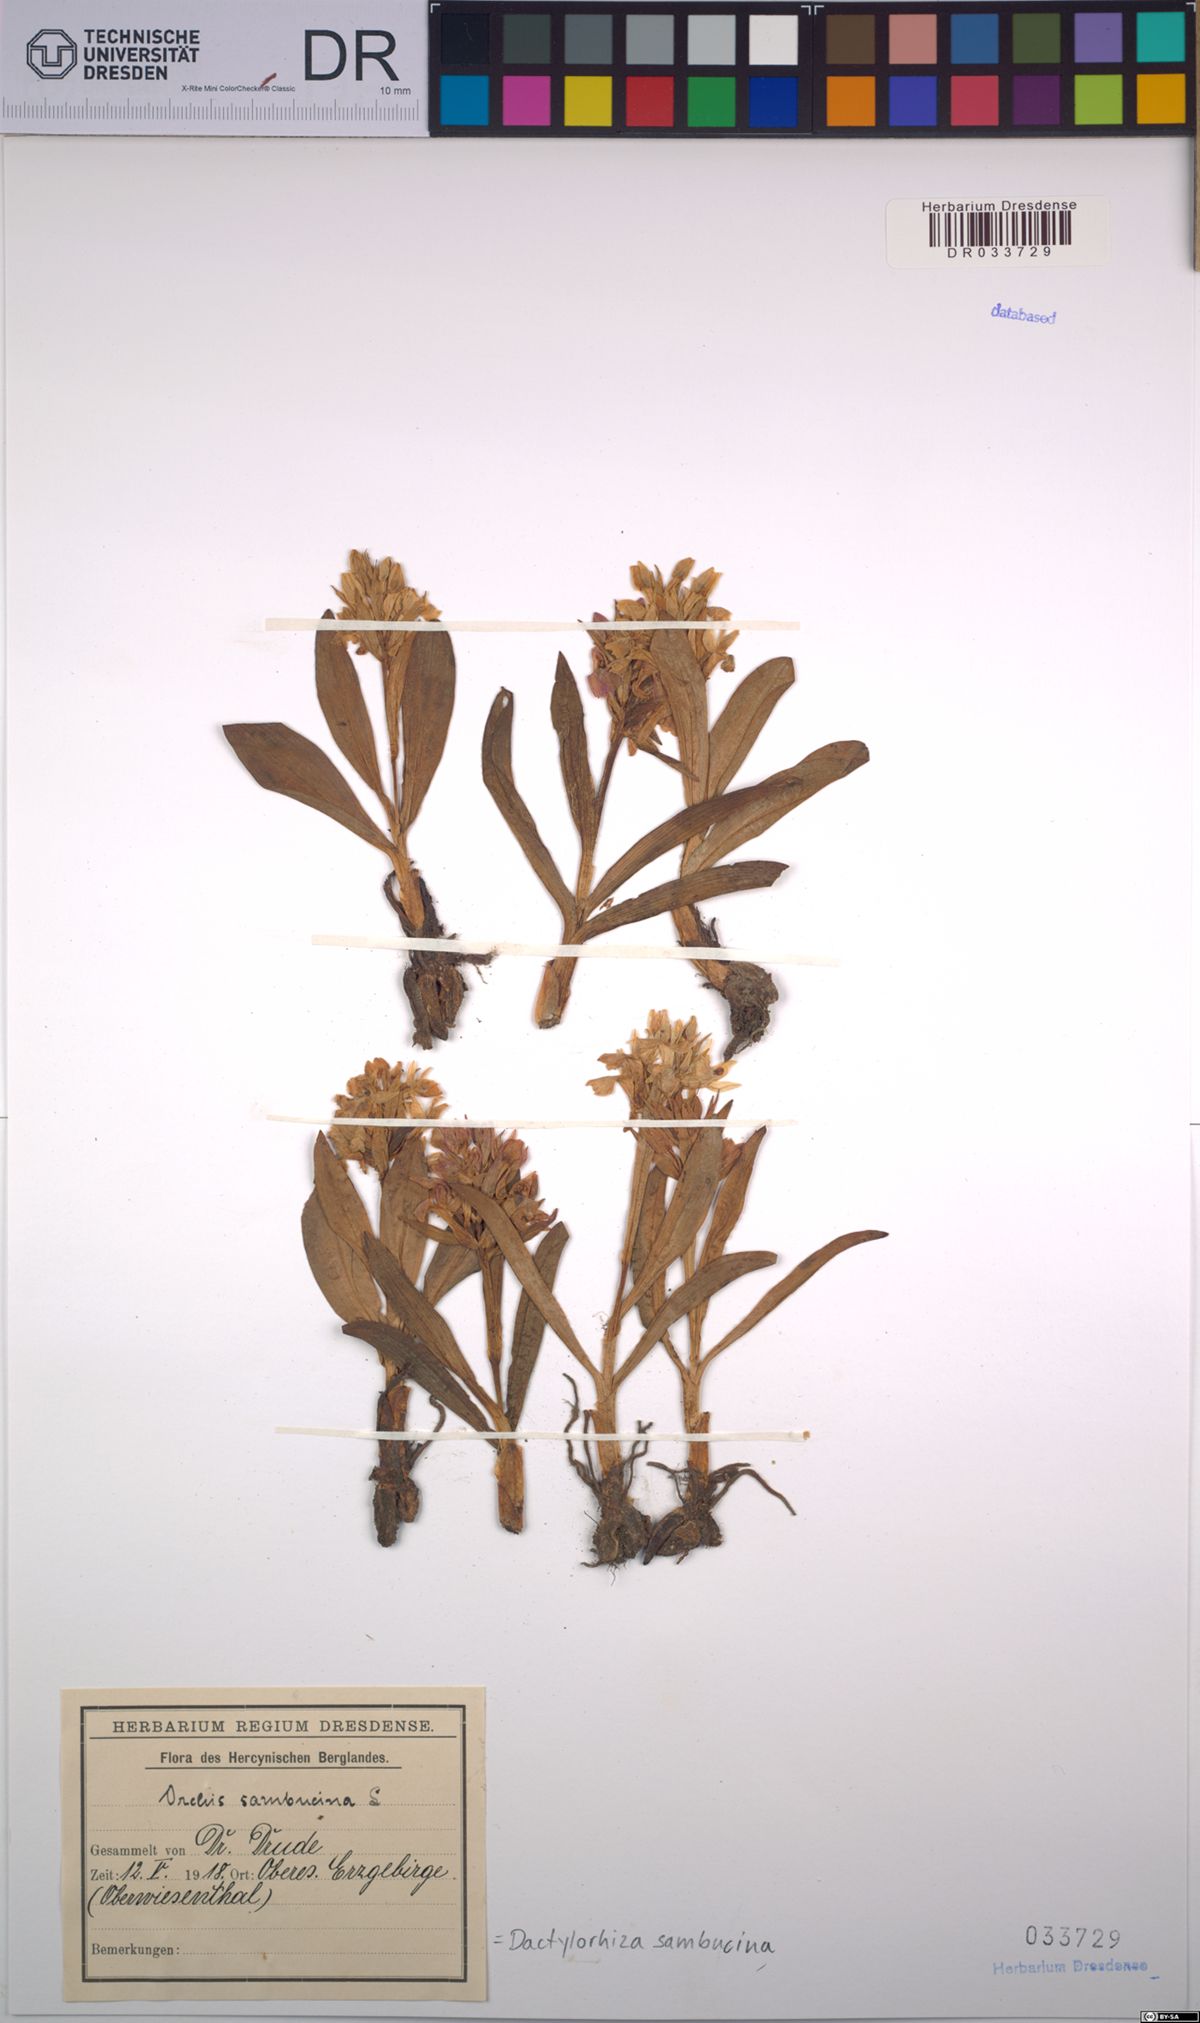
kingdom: Plantae
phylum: Tracheophyta
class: Liliopsida
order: Asparagales
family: Orchidaceae
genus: Dactylorhiza
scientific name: Dactylorhiza sambucina
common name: Elder-flowered orchid
